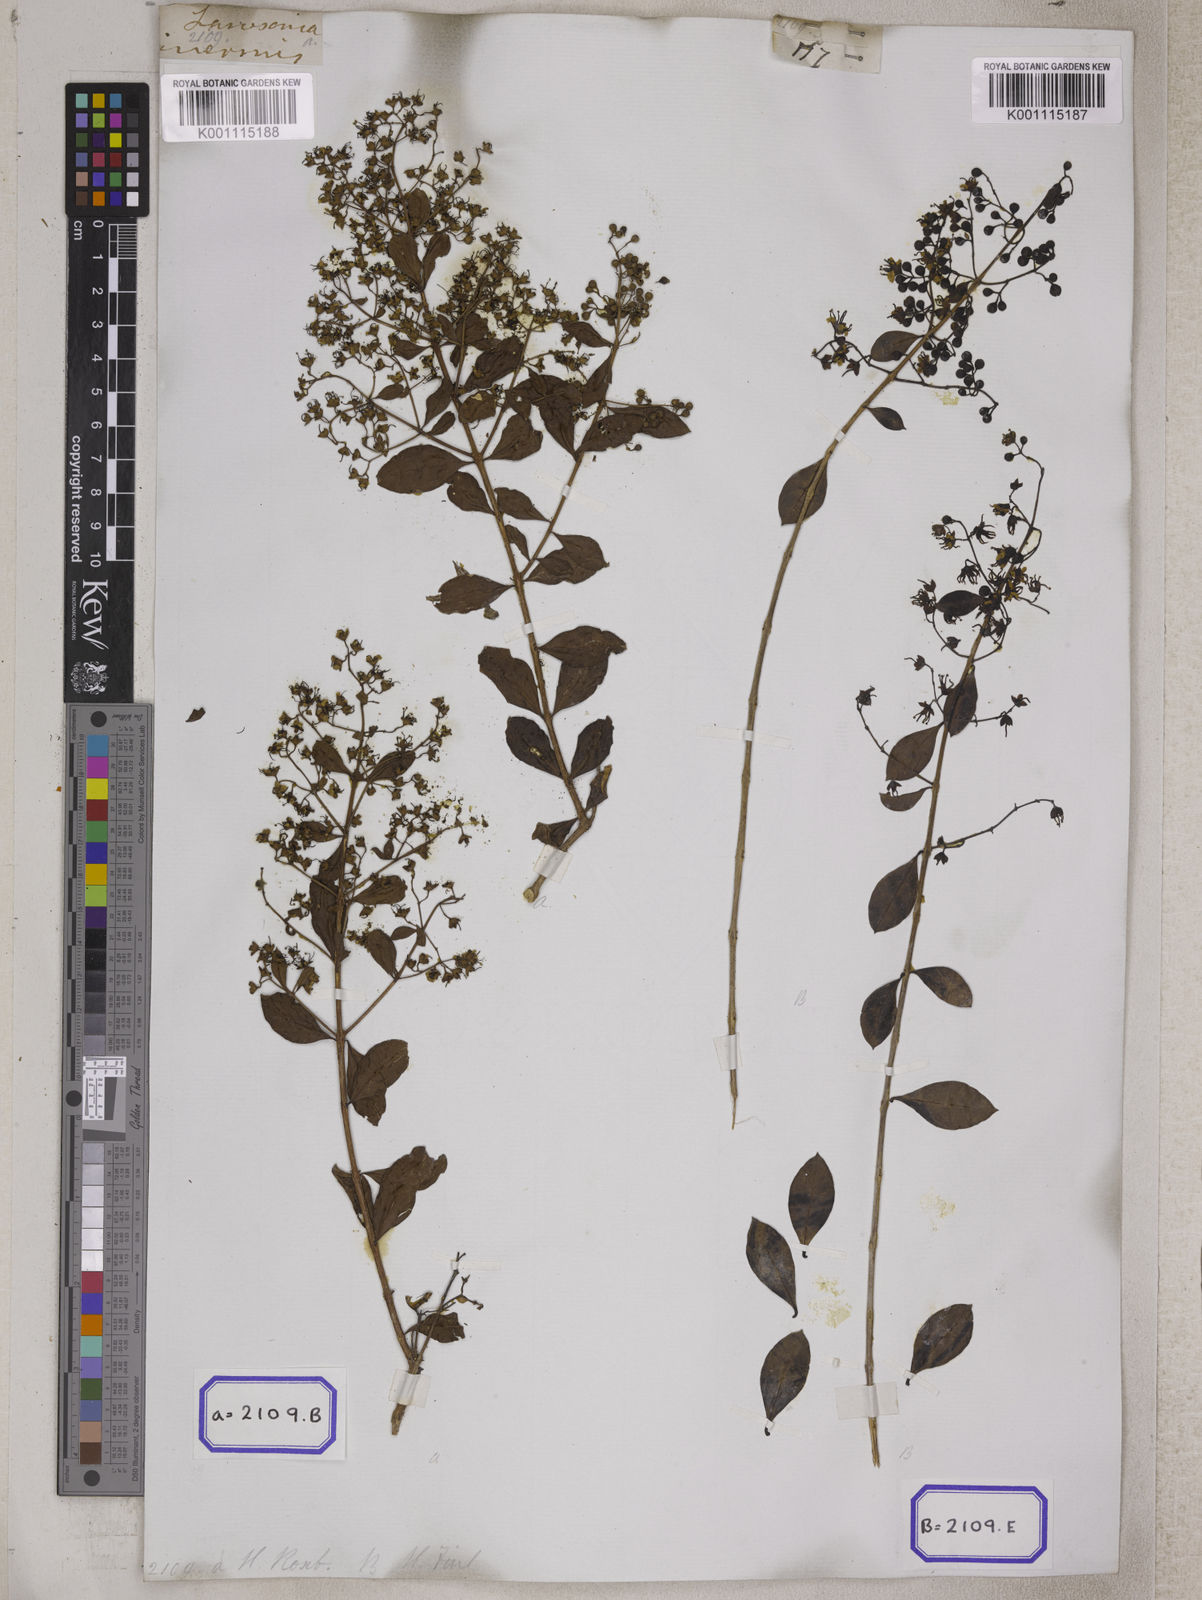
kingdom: Plantae
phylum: Tracheophyta
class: Magnoliopsida
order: Myrtales
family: Lythraceae
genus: Lawsonia
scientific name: Lawsonia inermis
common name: Henna
